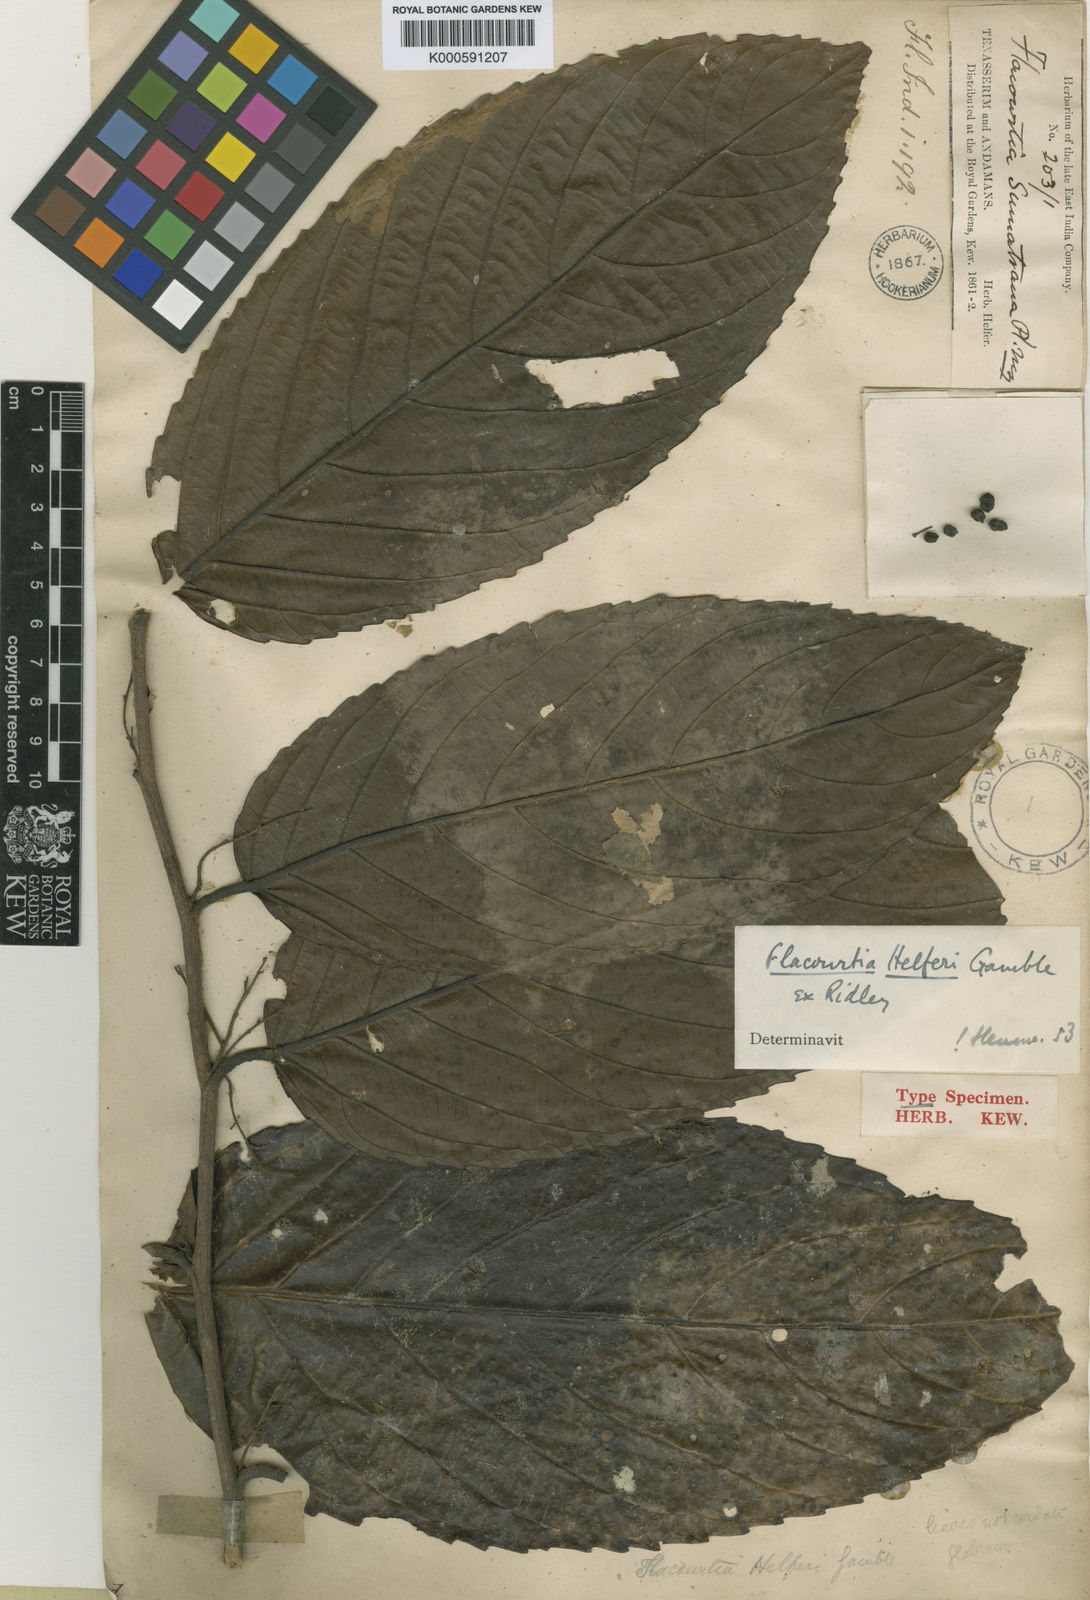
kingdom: Plantae
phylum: Tracheophyta
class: Magnoliopsida
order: Malpighiales
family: Salicaceae
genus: Flacourtia
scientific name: Flacourtia helferi
